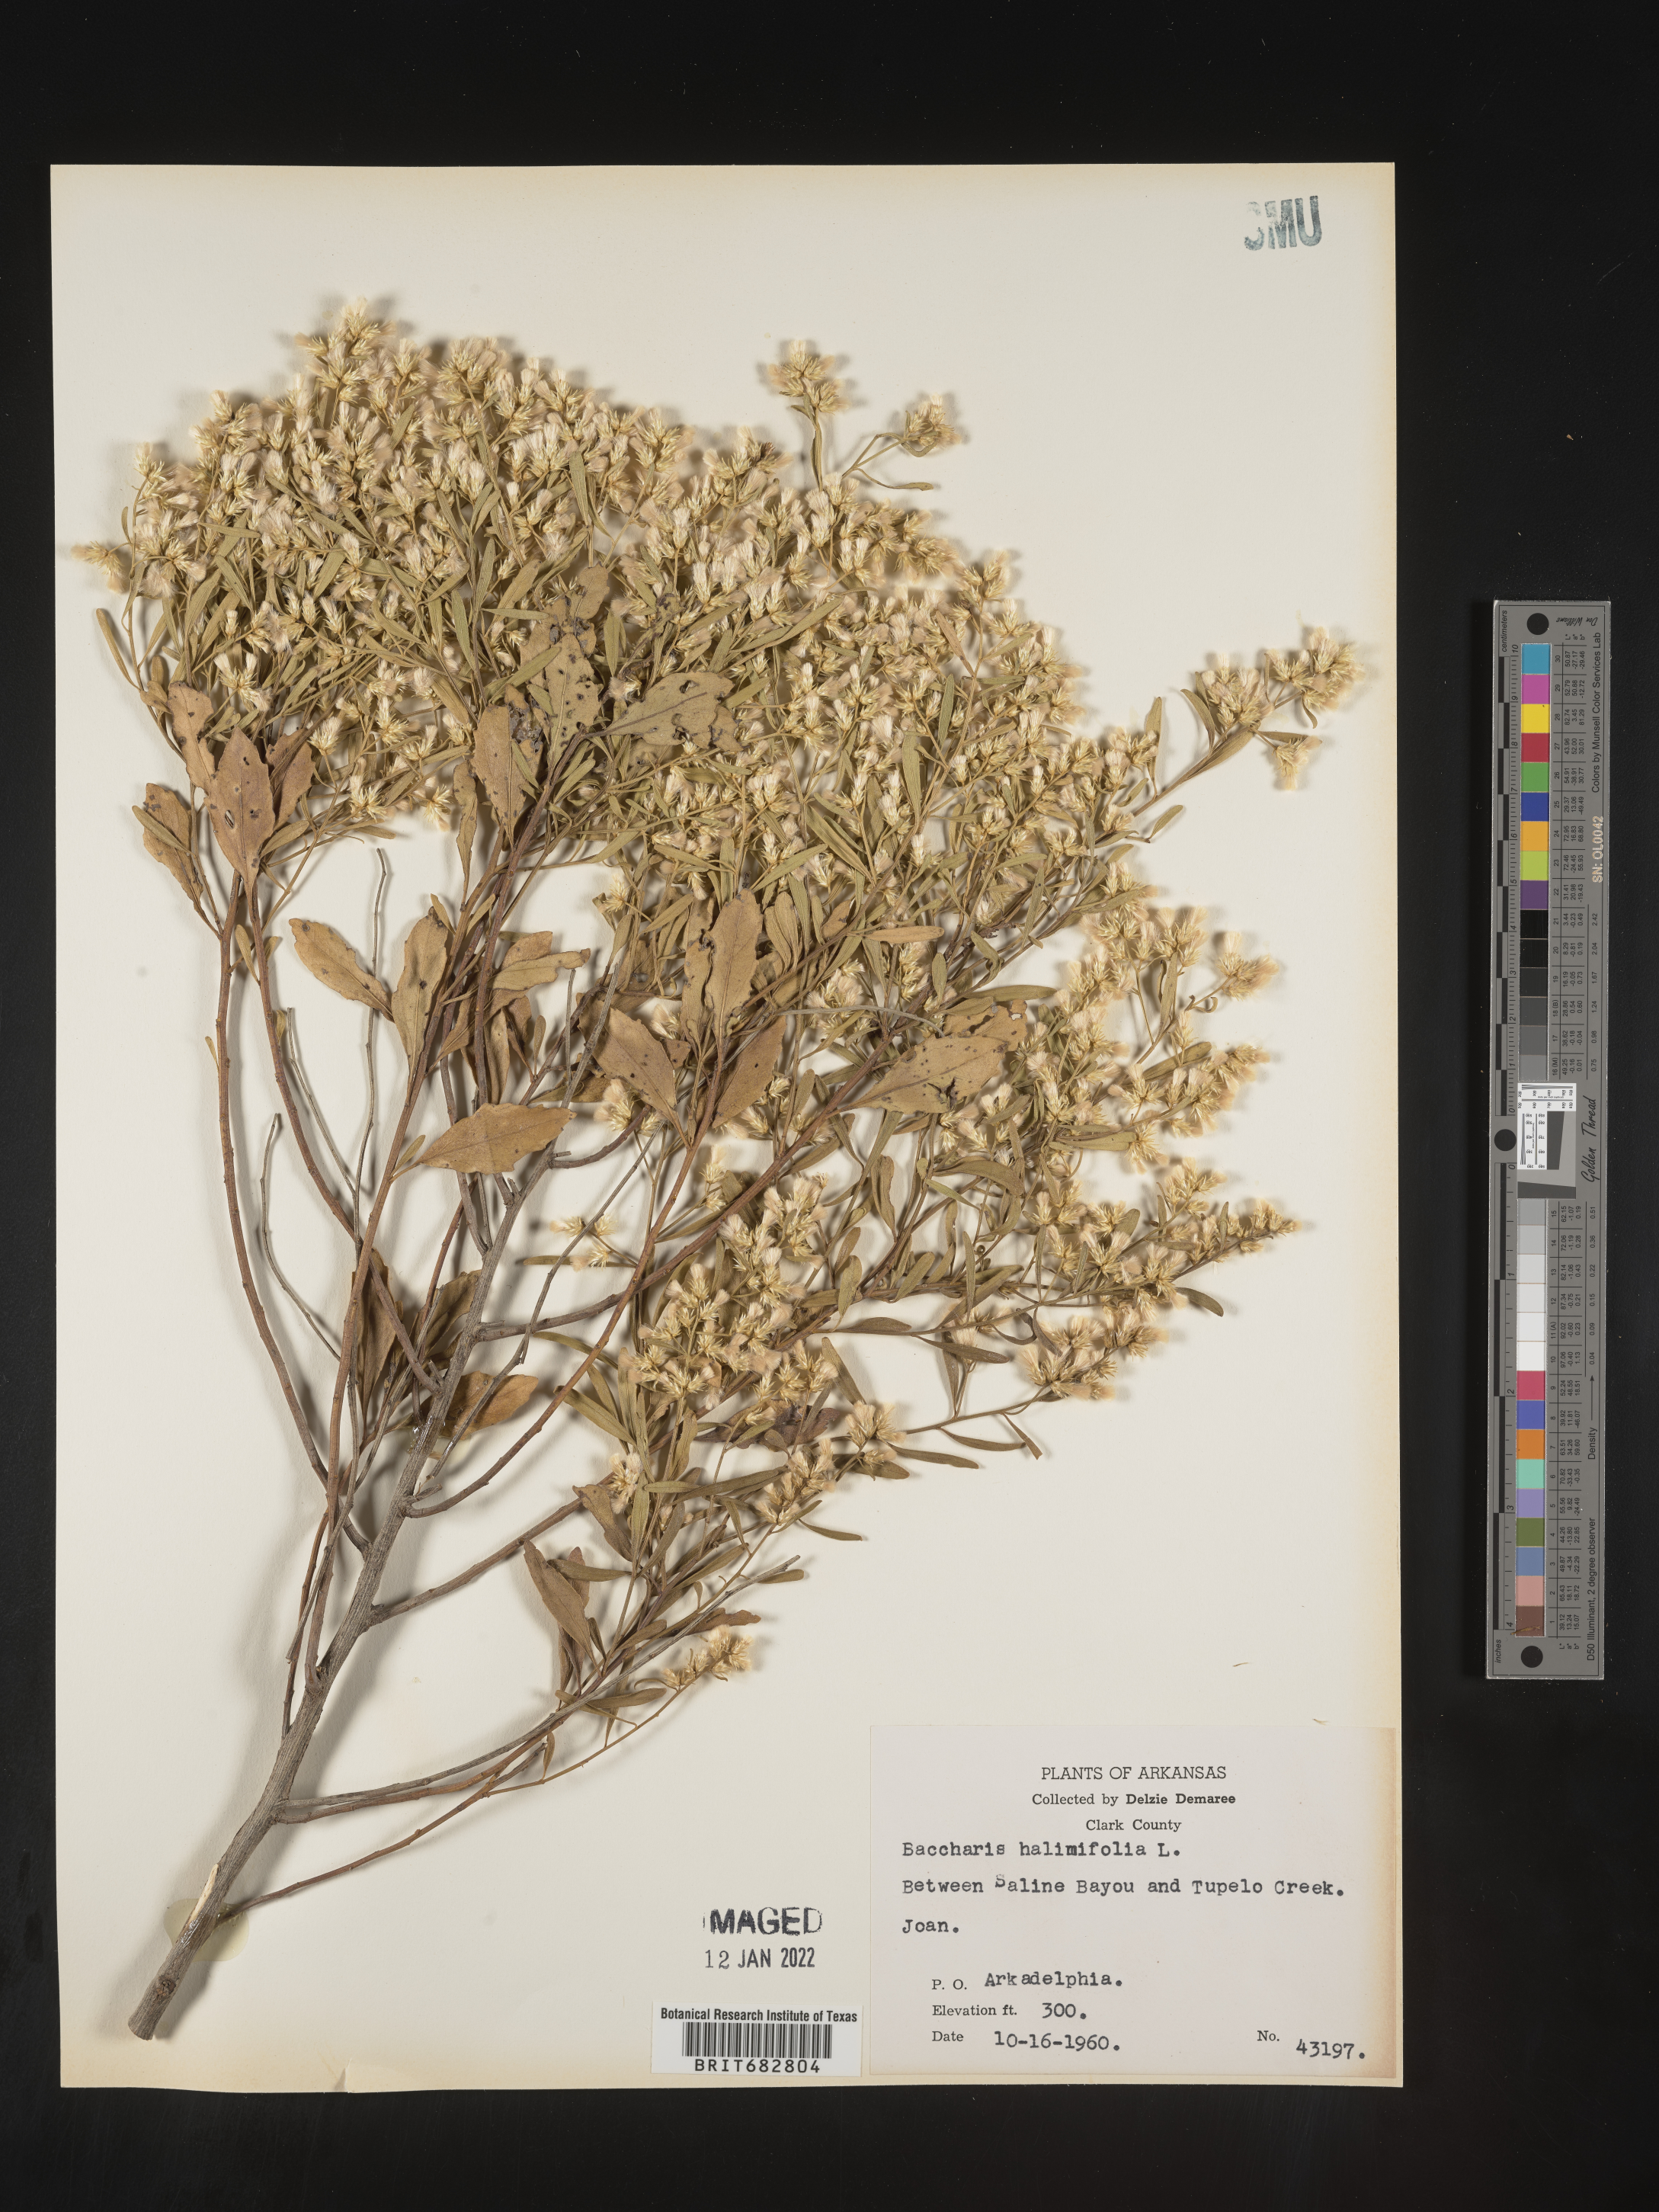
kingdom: Plantae
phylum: Tracheophyta
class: Magnoliopsida
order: Asterales
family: Asteraceae
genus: Nidorella
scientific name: Nidorella ivifolia
